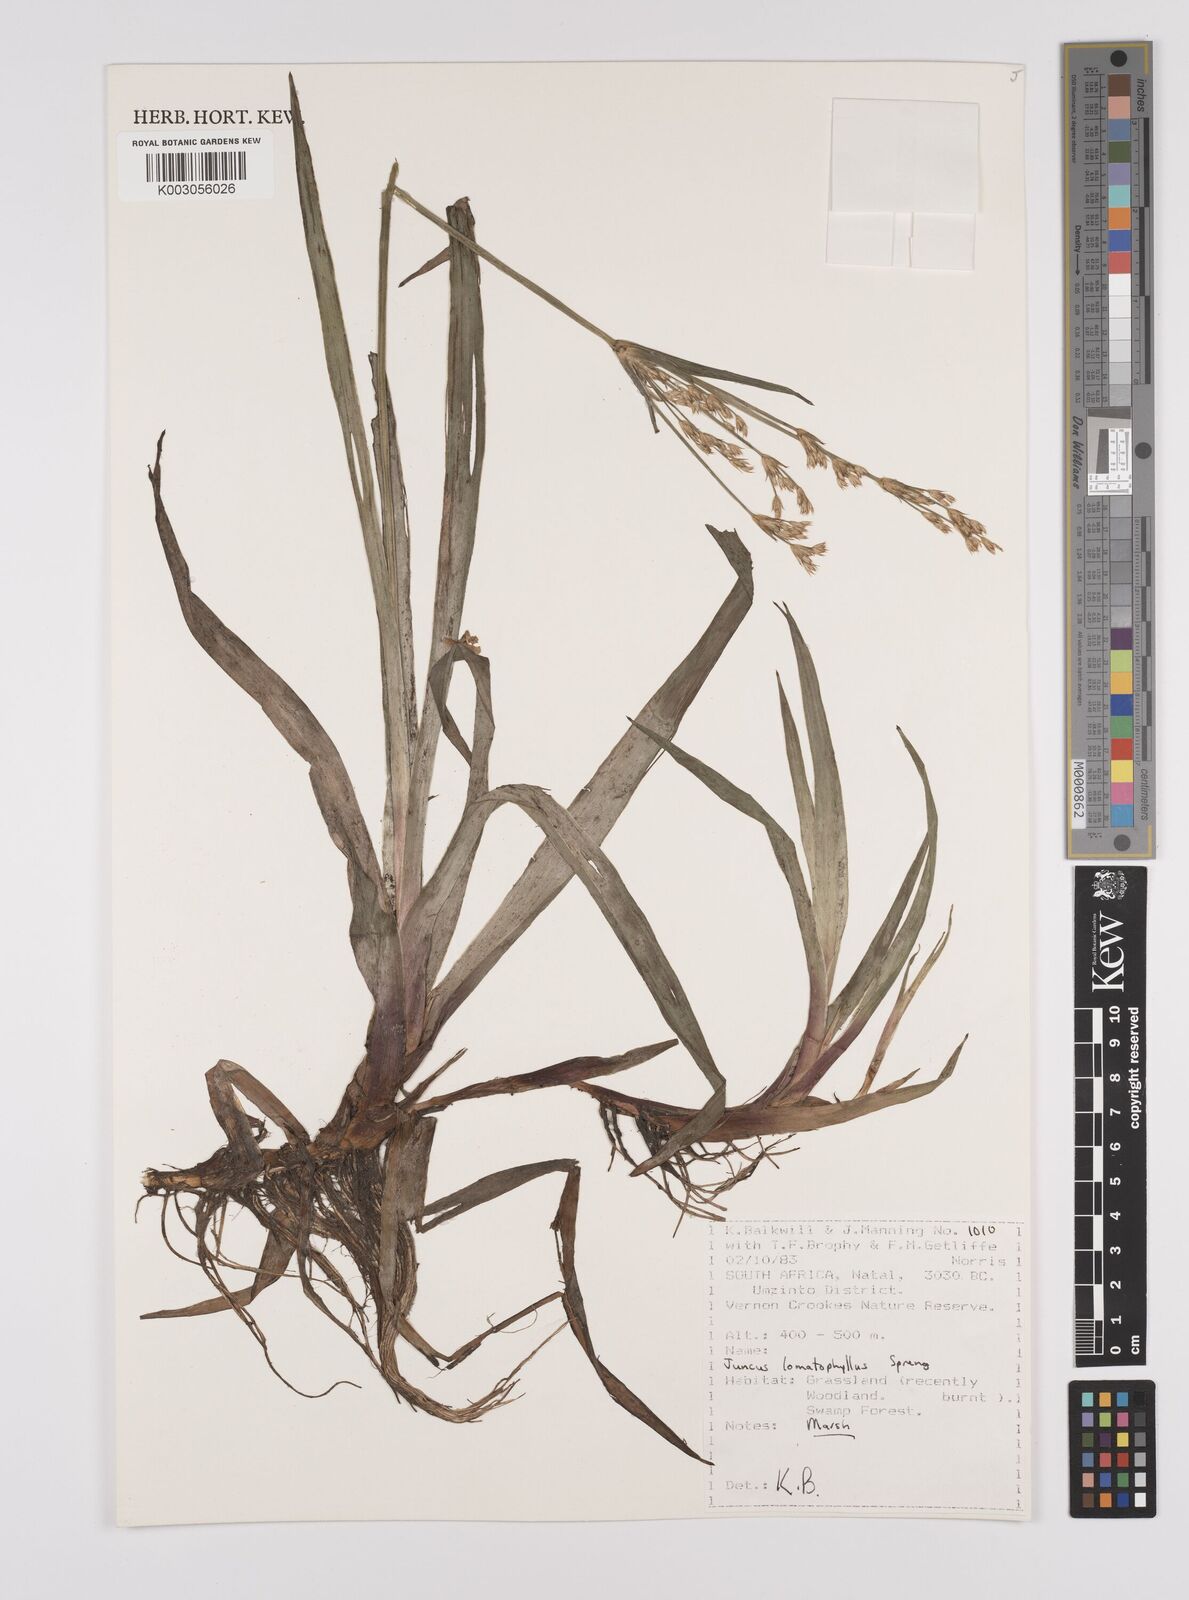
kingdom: Plantae
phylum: Tracheophyta
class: Liliopsida
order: Poales
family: Juncaceae
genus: Juncus
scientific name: Juncus lomatophyllus
